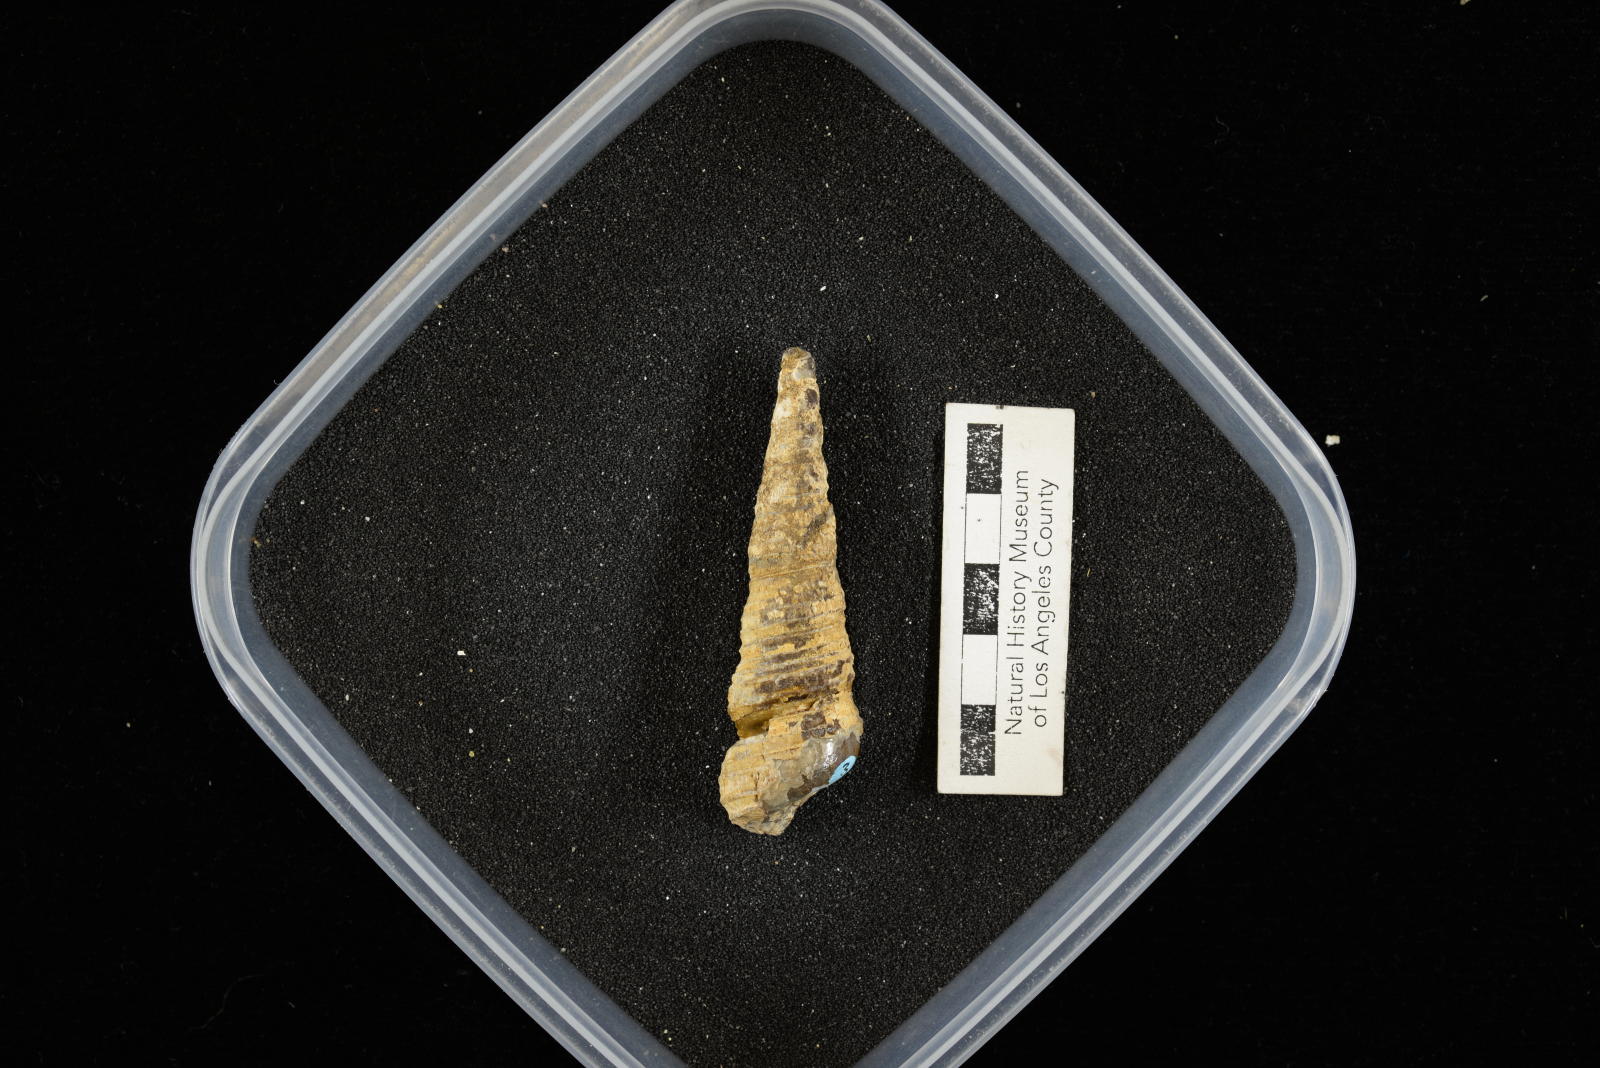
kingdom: Animalia
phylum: Mollusca
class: Gastropoda
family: Turritellidae
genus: Turritella
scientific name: Turritella chicoensis
